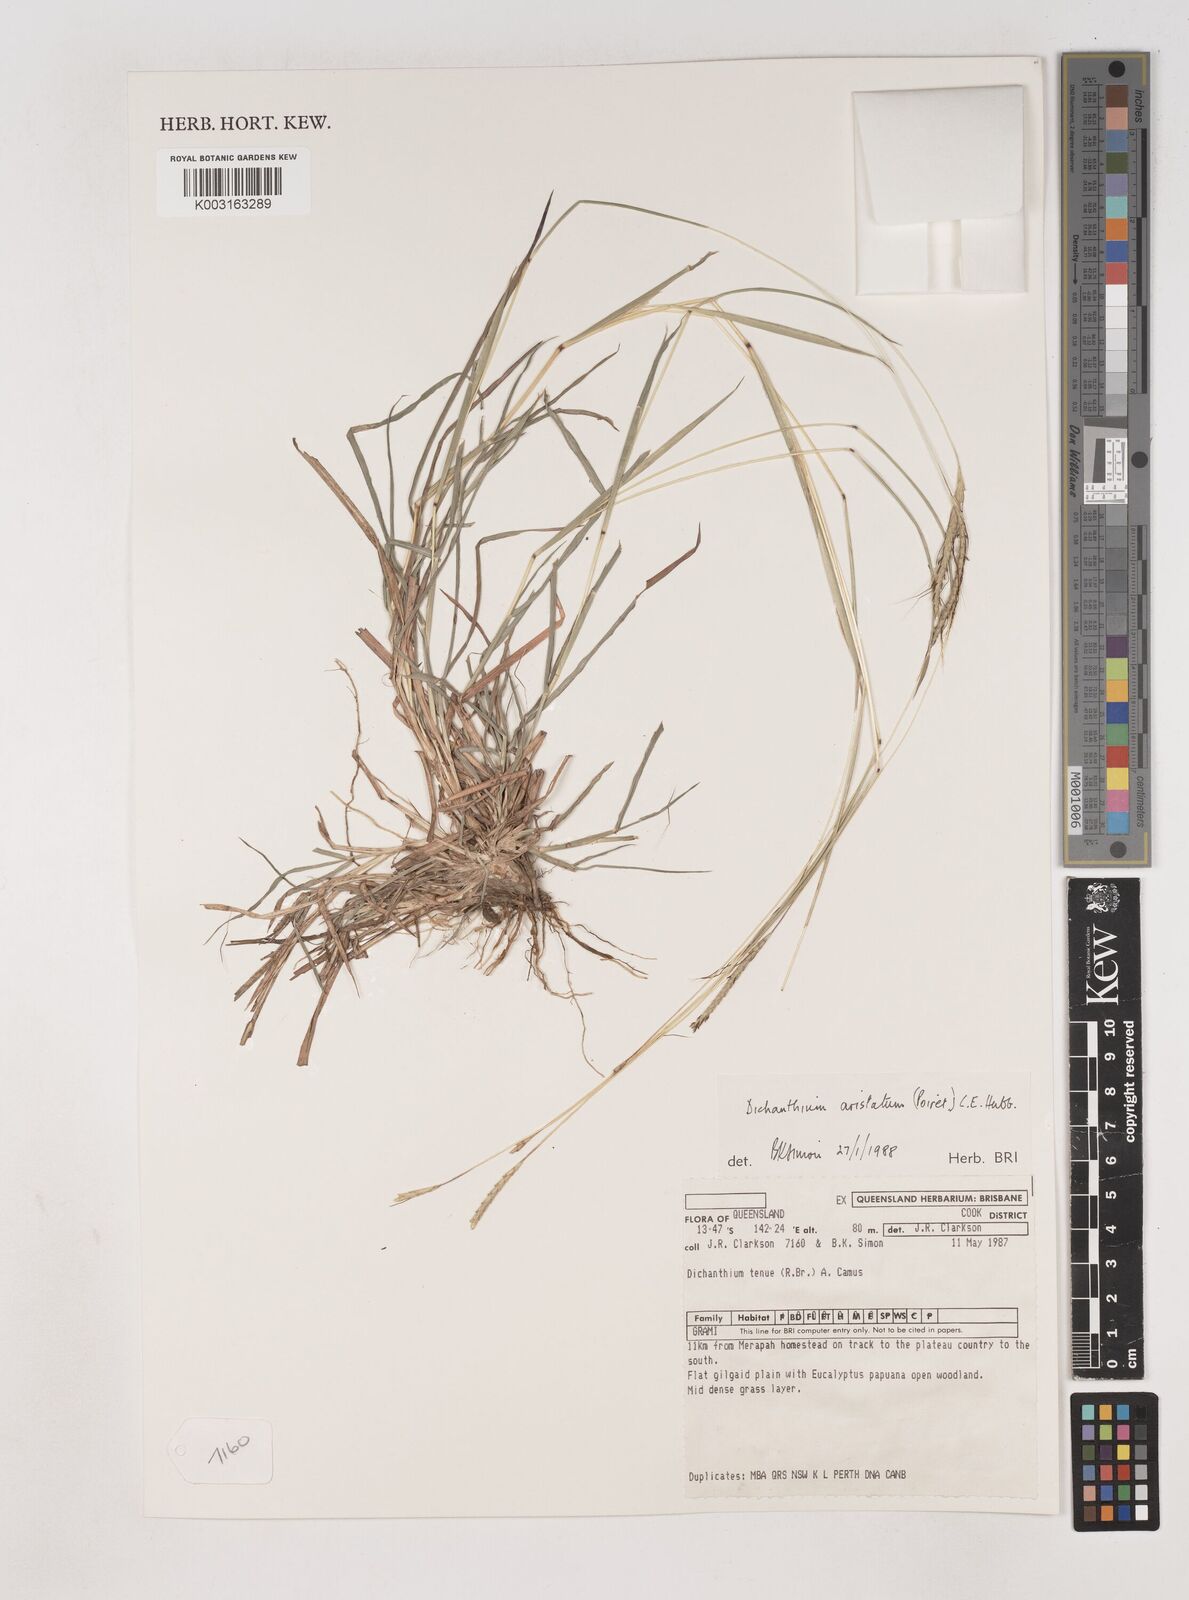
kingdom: Plantae
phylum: Tracheophyta
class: Liliopsida
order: Poales
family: Poaceae
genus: Dichanthium
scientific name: Dichanthium aristatum
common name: Angleton bluestem
